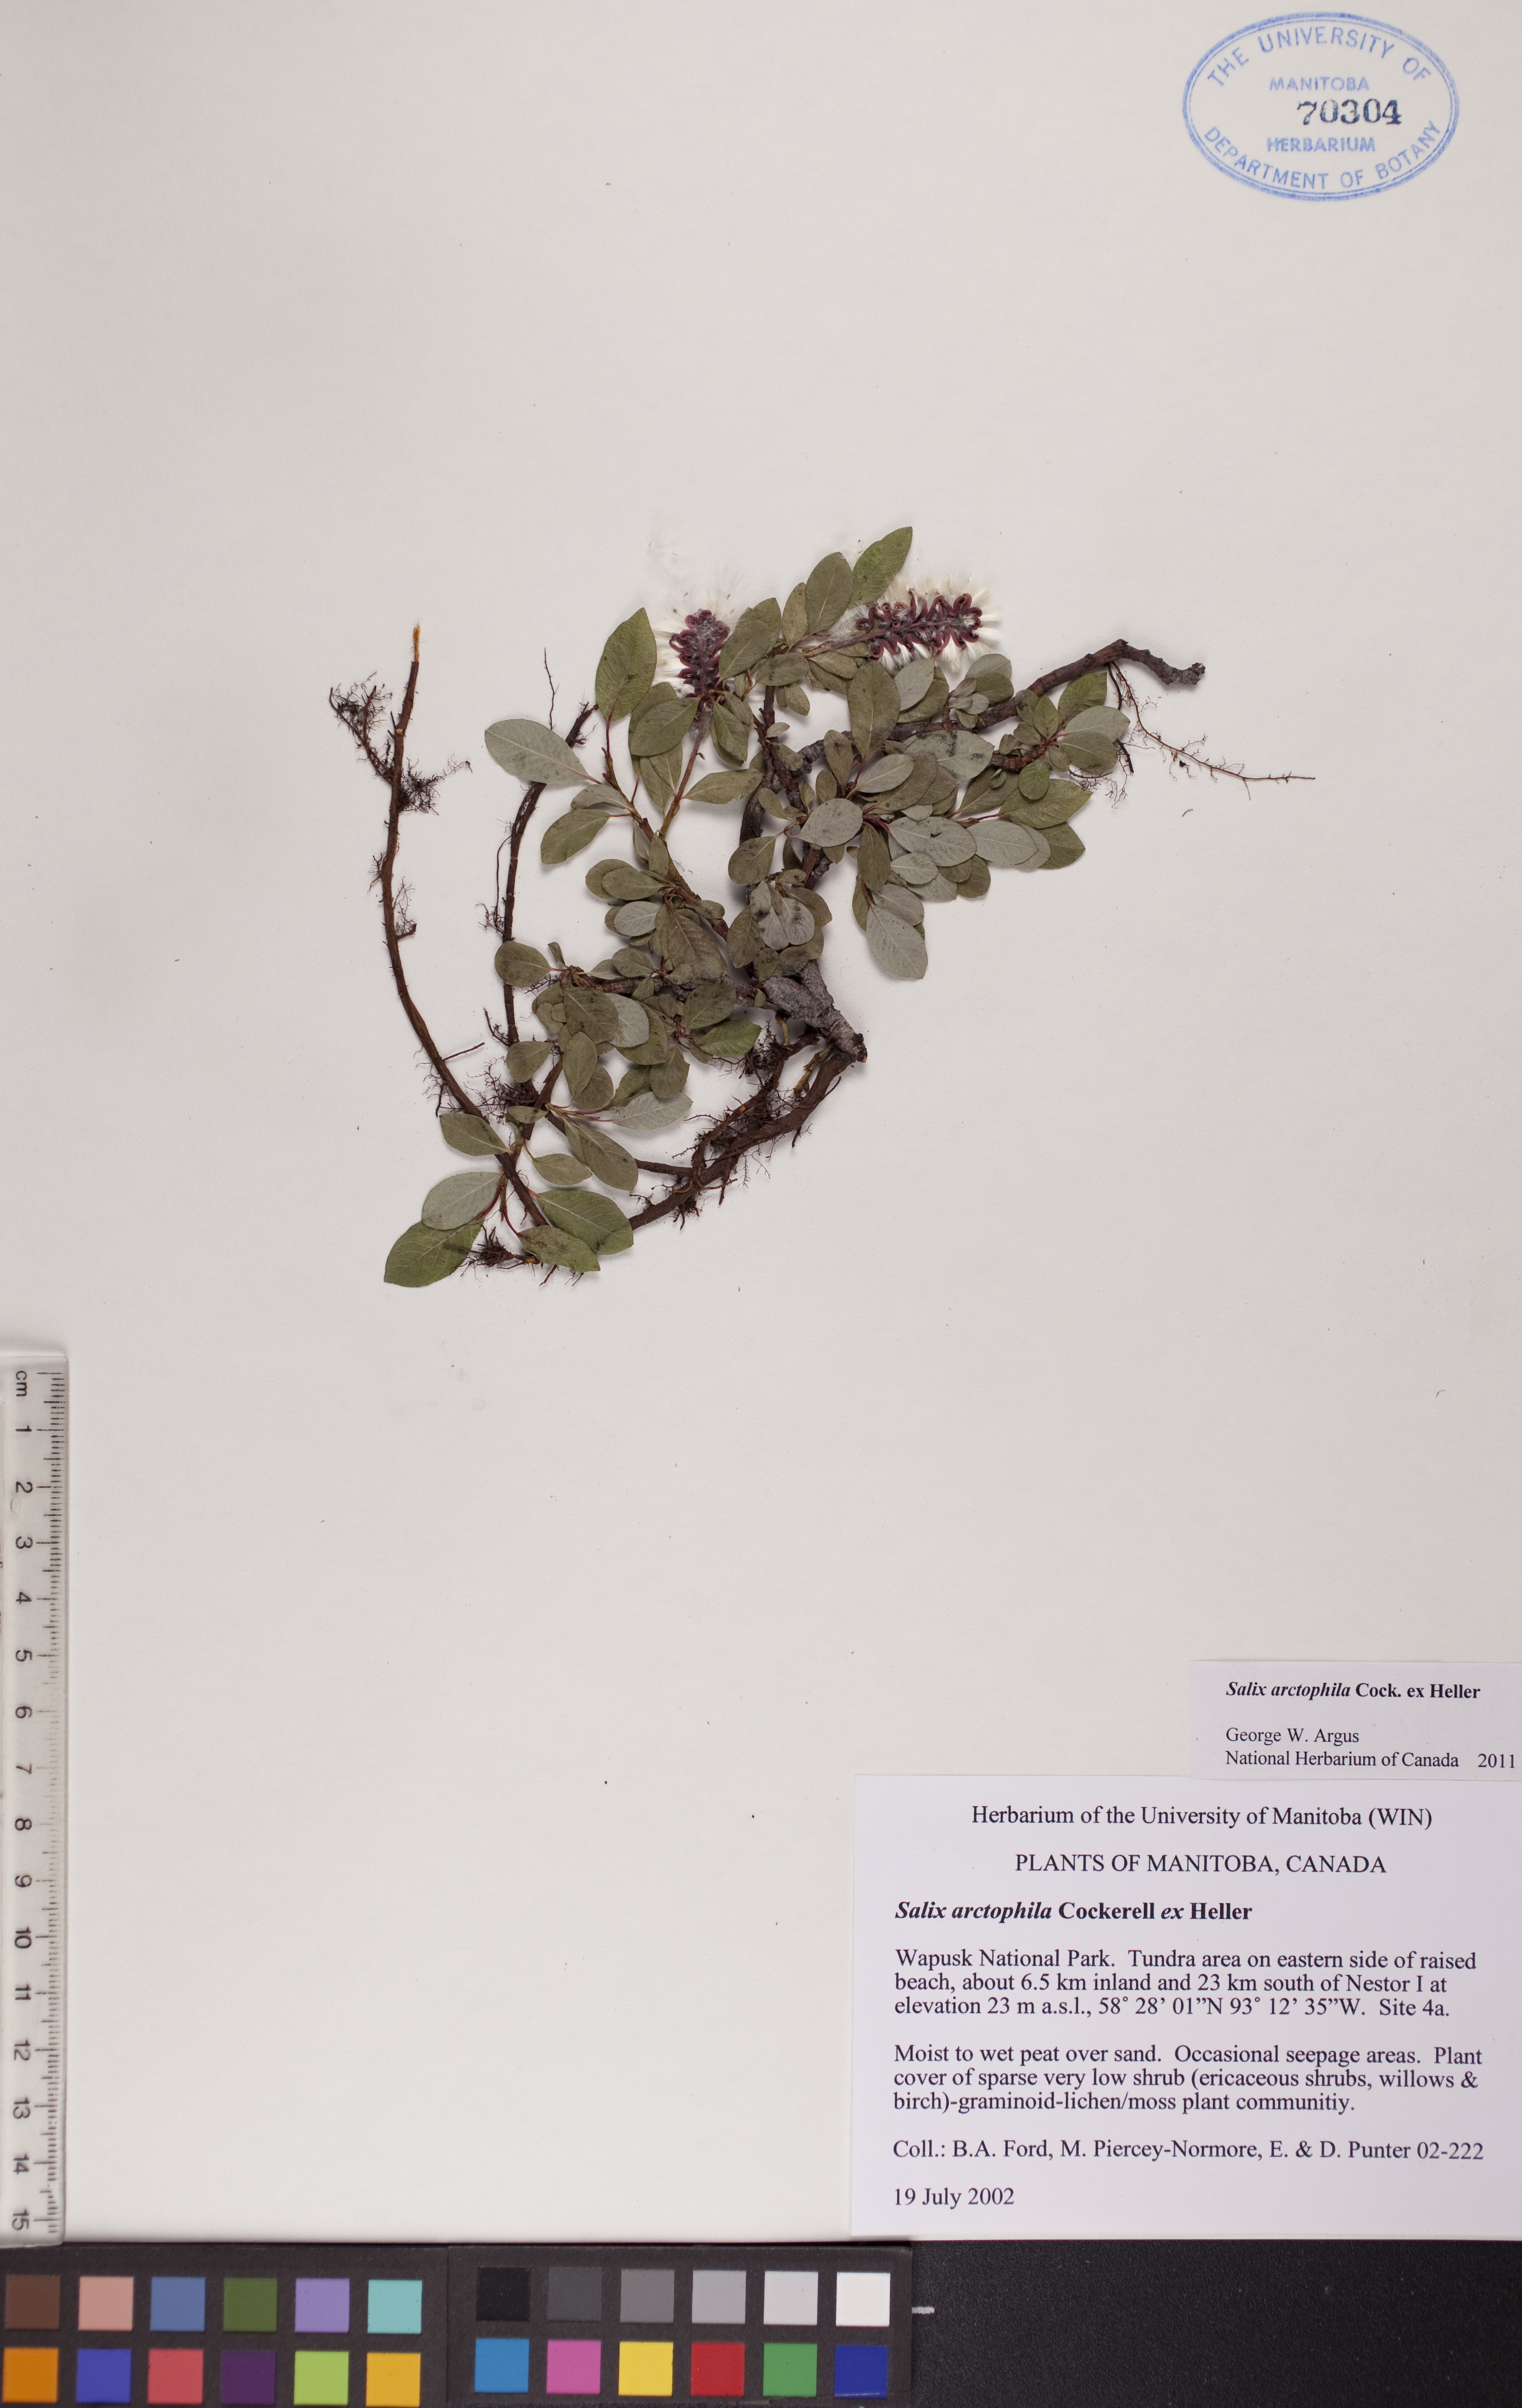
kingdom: Plantae
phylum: Tracheophyta
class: Magnoliopsida
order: Malpighiales
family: Salicaceae
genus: Salix
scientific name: Salix arctophila
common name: Greenland willow
